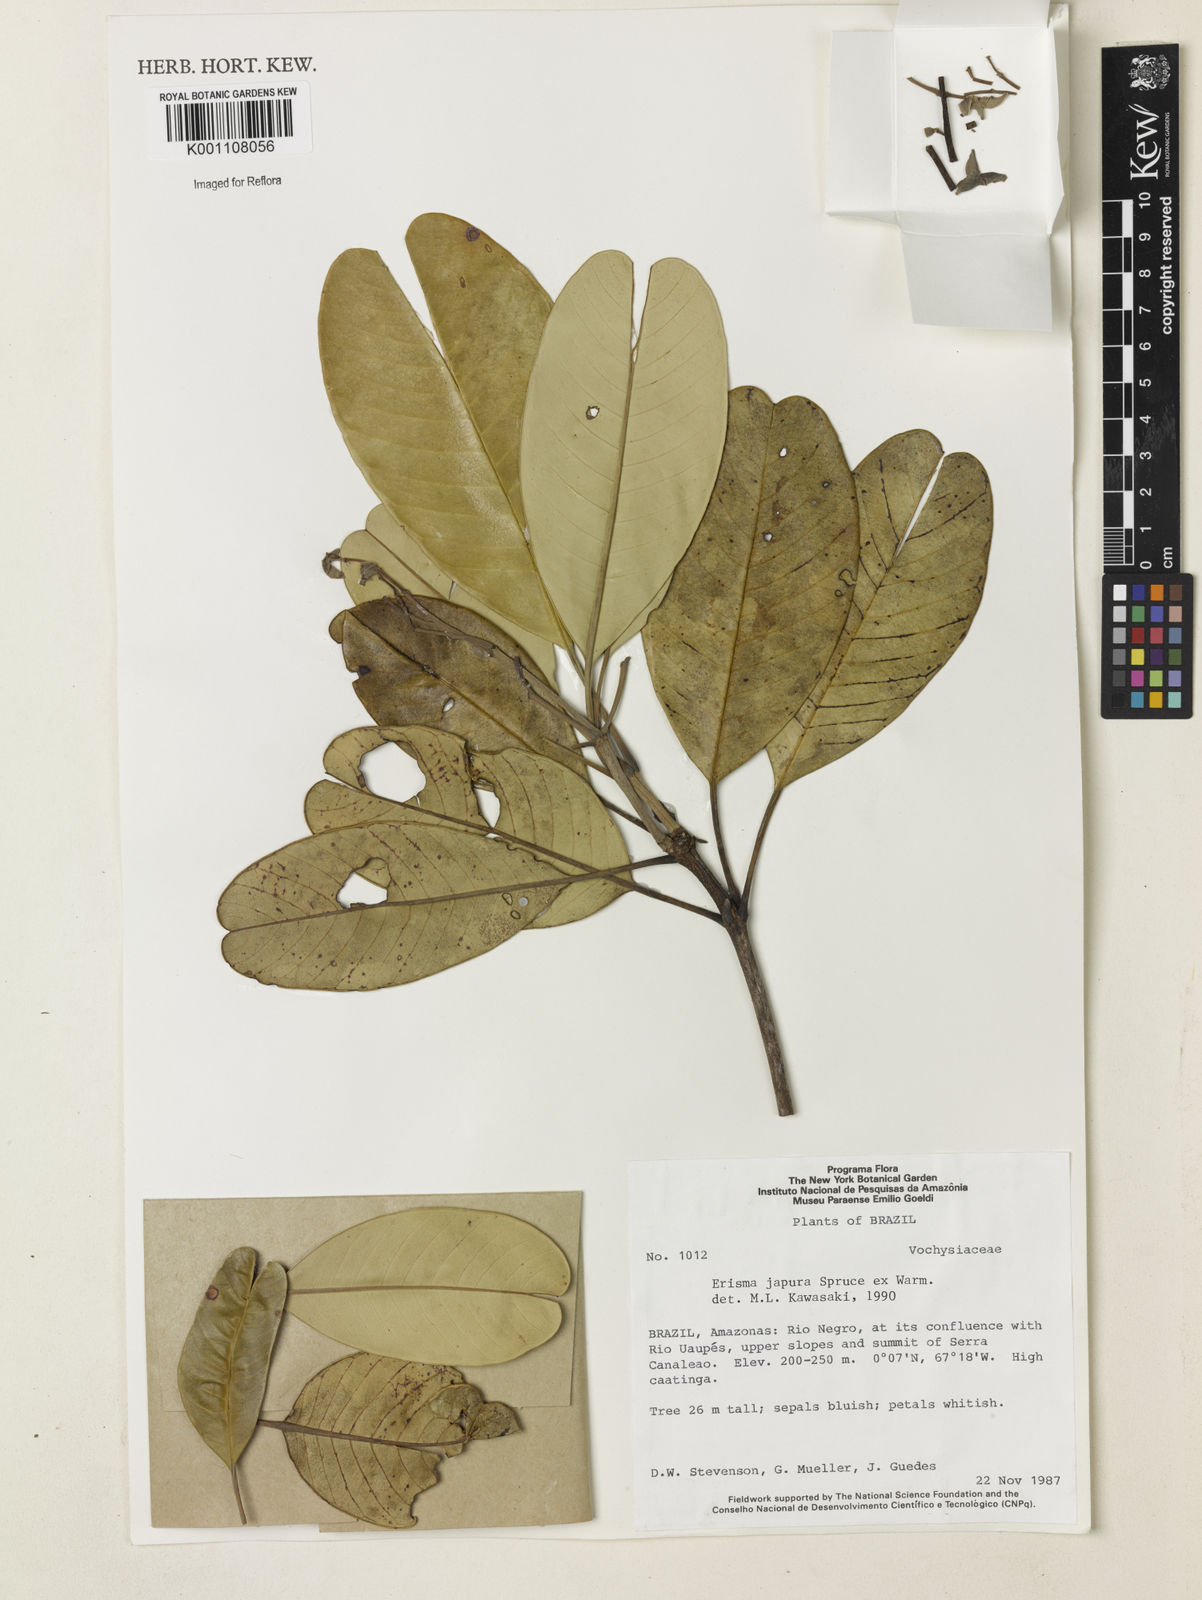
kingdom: Plantae
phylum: Tracheophyta
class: Magnoliopsida
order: Myrtales
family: Vochysiaceae
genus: Erisma
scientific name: Erisma japura
